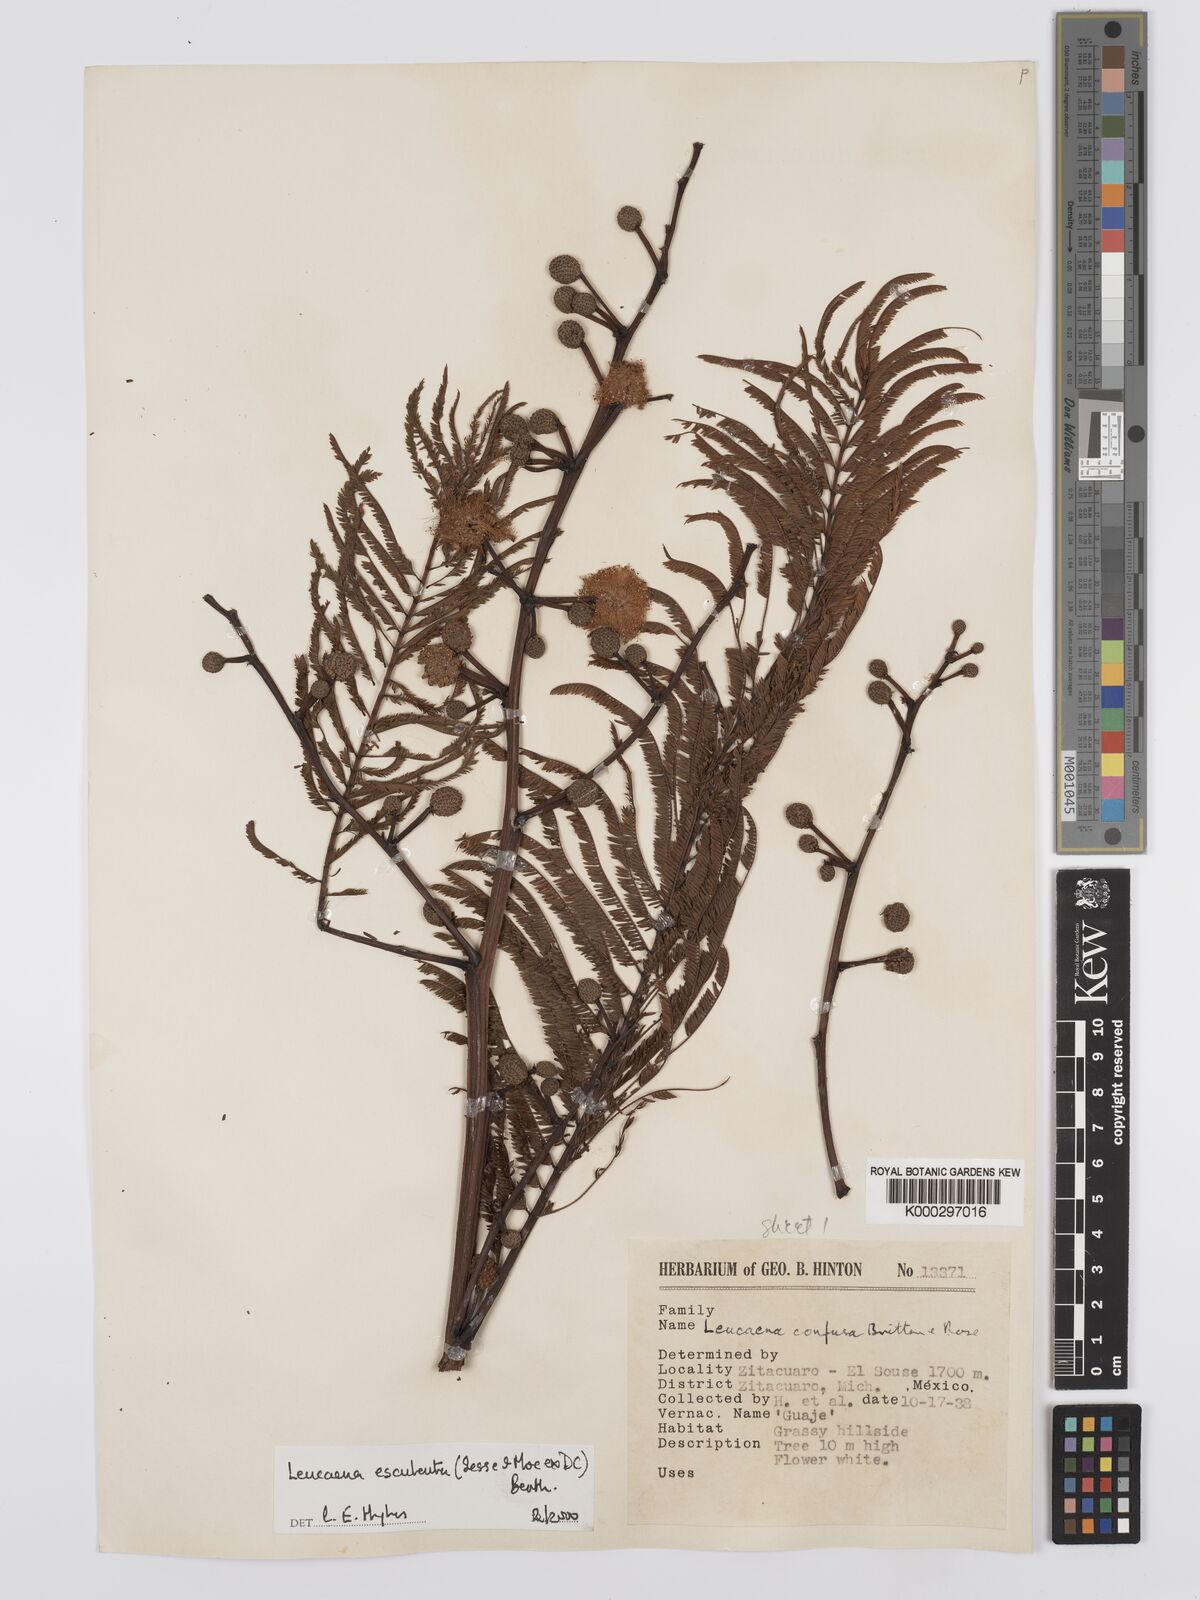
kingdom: Plantae
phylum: Tracheophyta
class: Magnoliopsida
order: Fabales
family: Fabaceae
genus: Leucaena
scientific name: Leucaena esculenta
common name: Guaje
